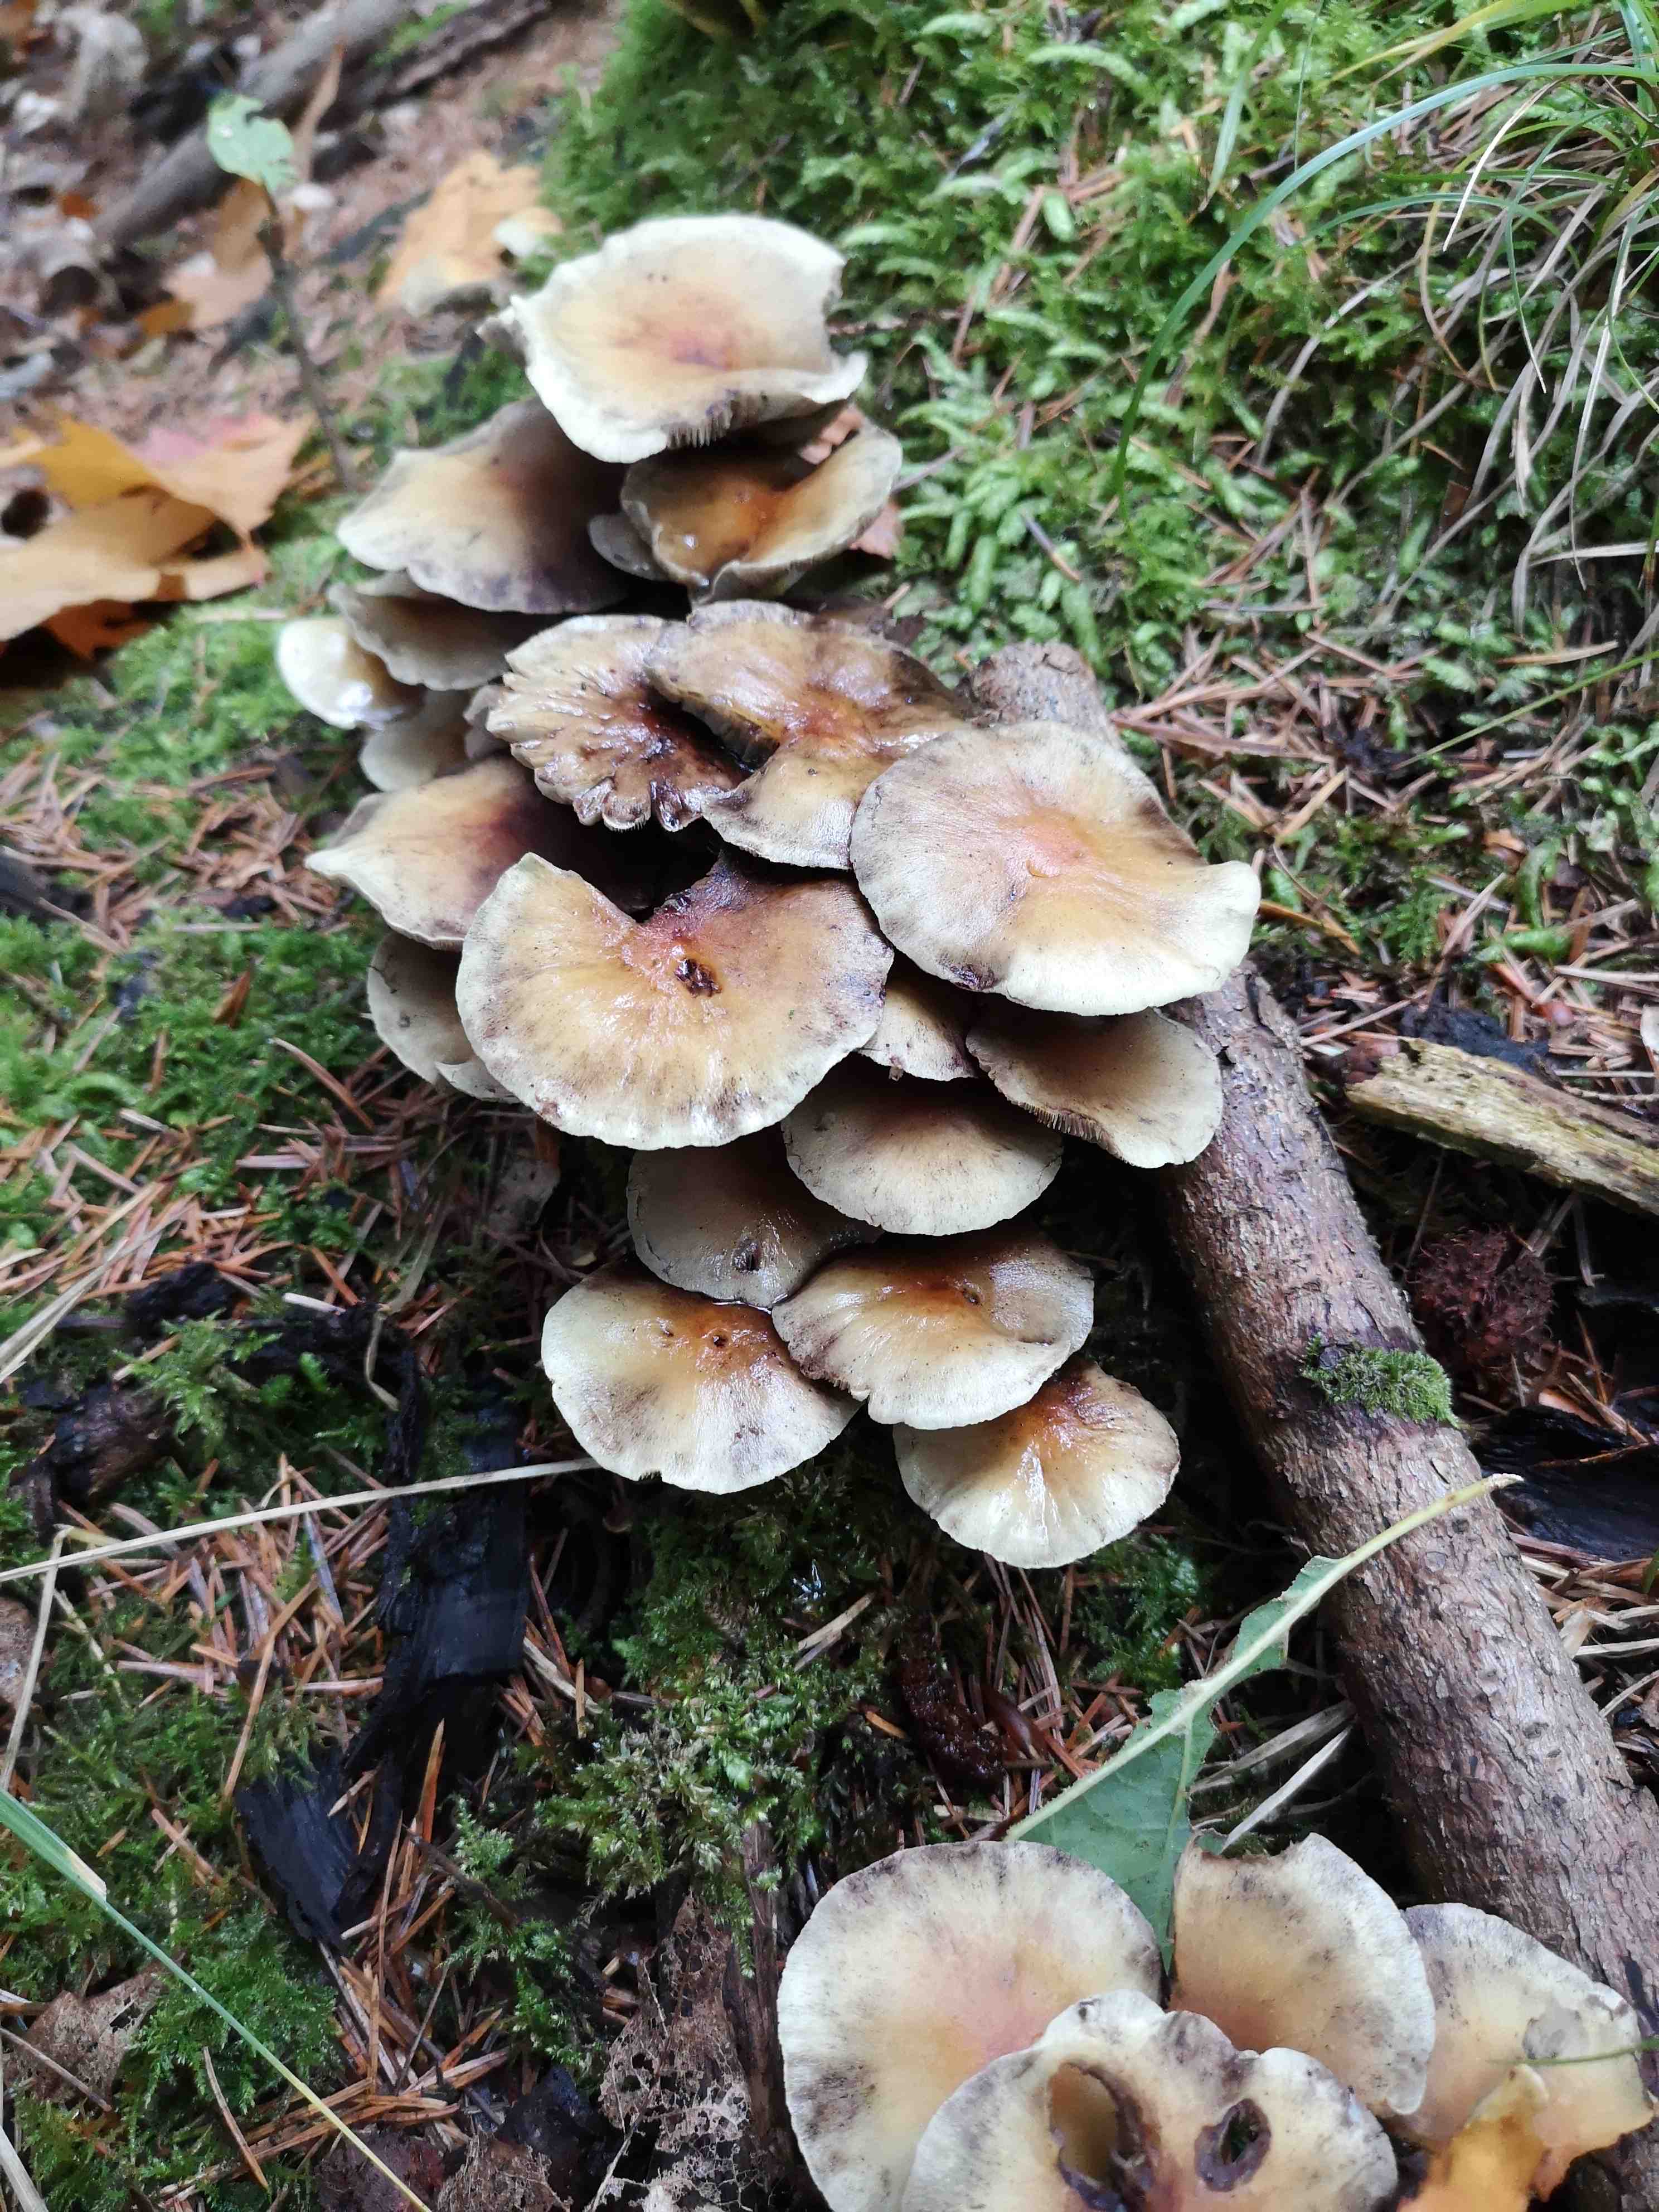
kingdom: Fungi
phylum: Basidiomycota
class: Agaricomycetes
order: Agaricales
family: Strophariaceae
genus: Hypholoma
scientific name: Hypholoma fasciculare
